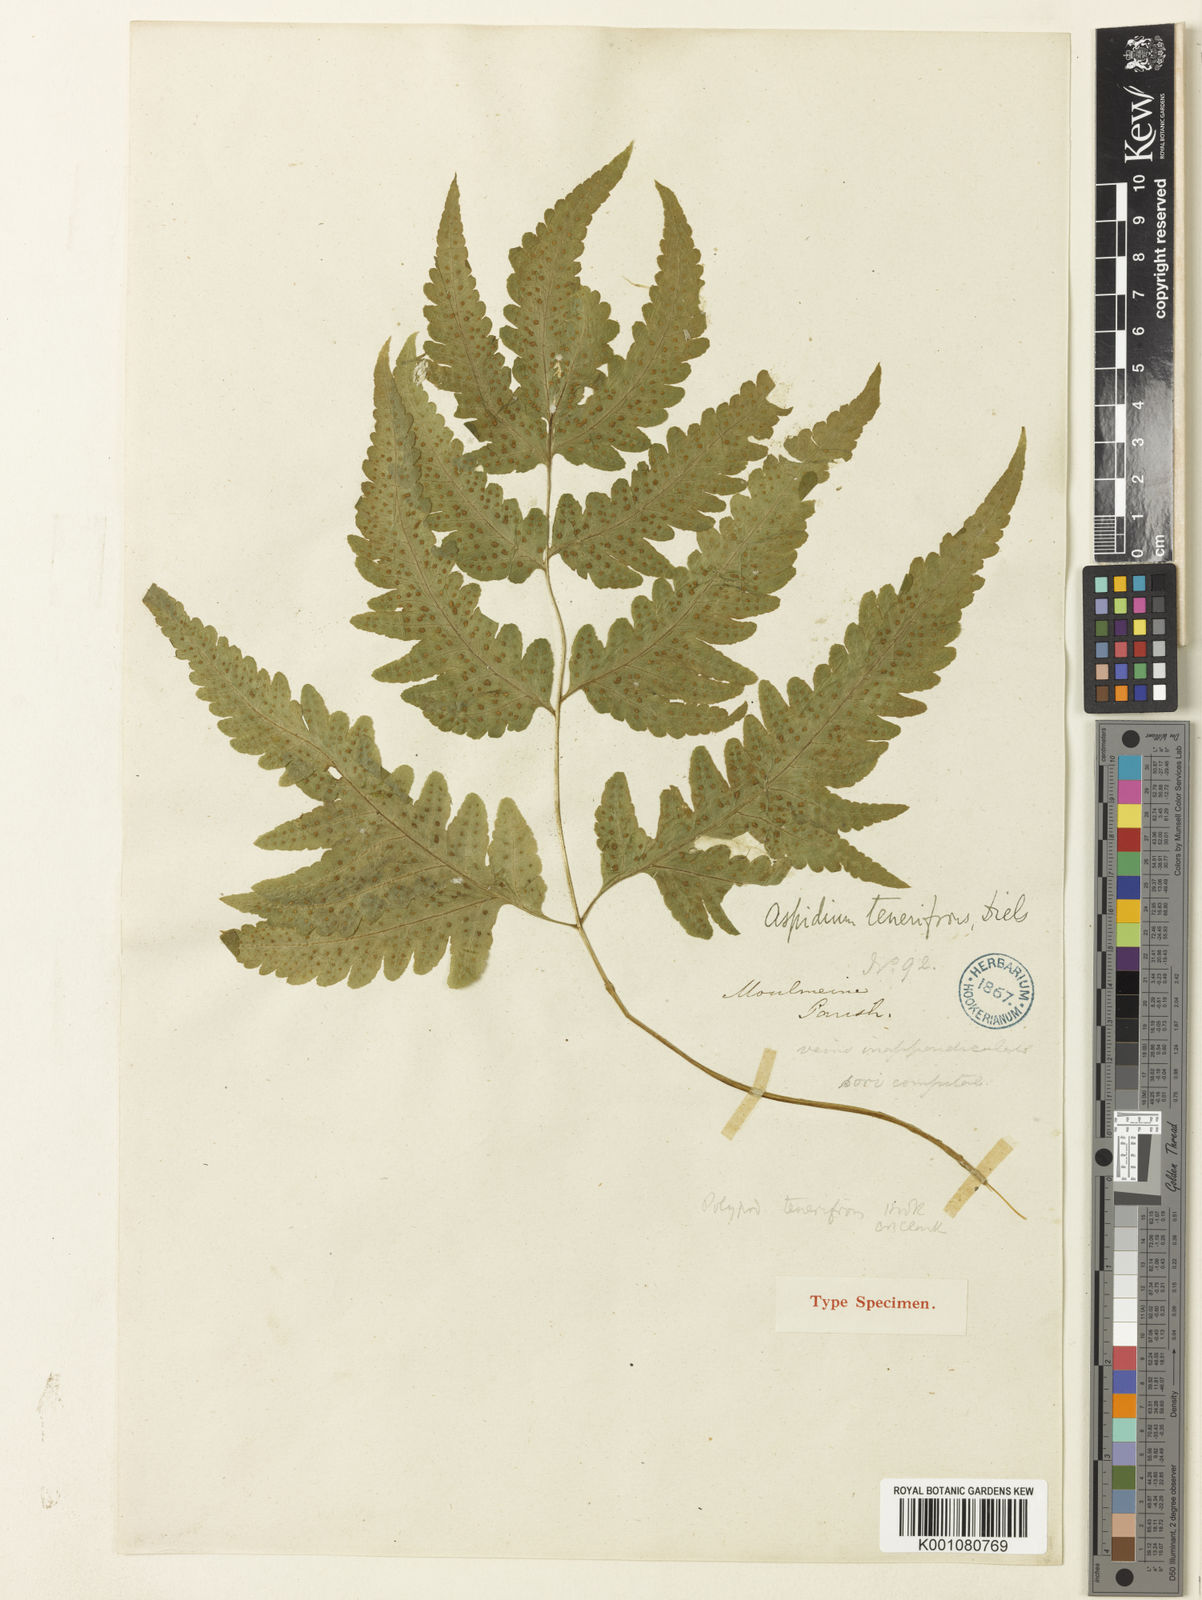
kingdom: Plantae
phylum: Tracheophyta
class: Polypodiopsida
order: Polypodiales
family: Tectariaceae
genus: Tectaria
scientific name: Tectaria tenerifrons
